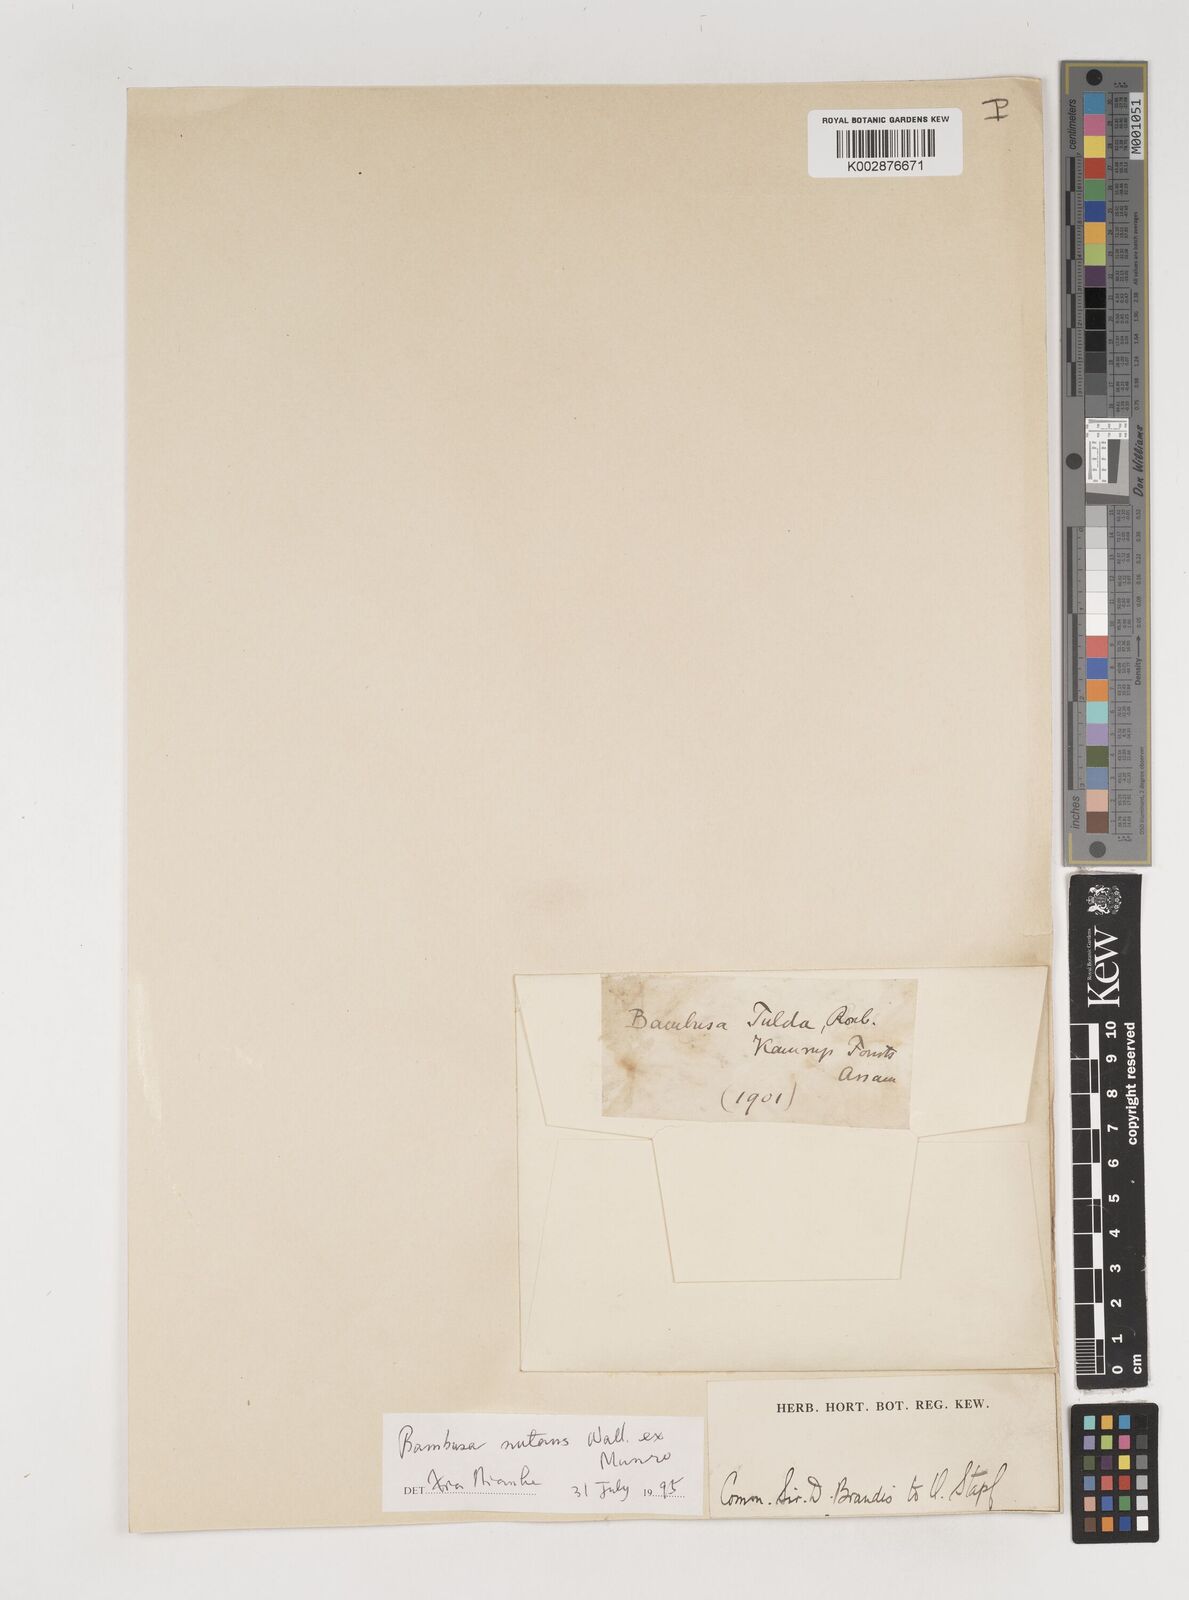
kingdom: Plantae
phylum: Tracheophyta
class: Liliopsida
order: Poales
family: Poaceae
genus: Bambusa
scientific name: Bambusa nutans
